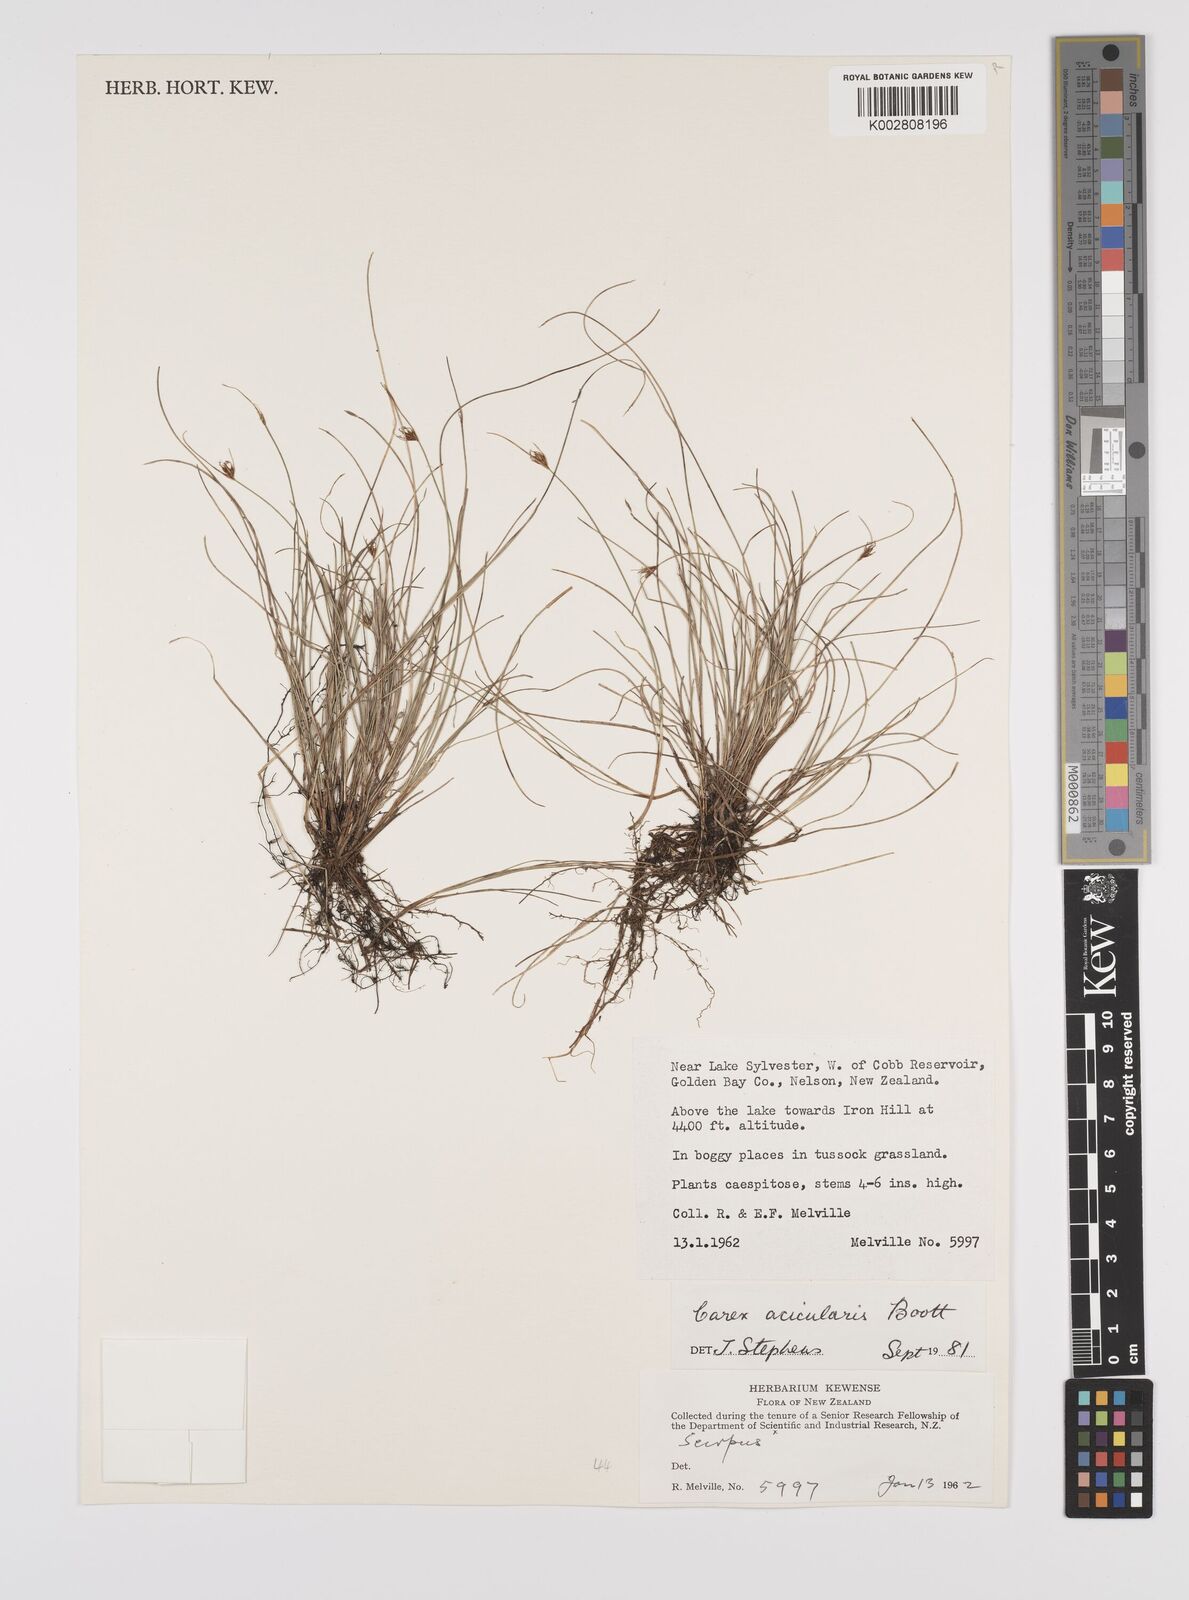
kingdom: Plantae
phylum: Tracheophyta
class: Liliopsida
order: Poales
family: Cyperaceae
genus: Carex
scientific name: Carex acicularis
